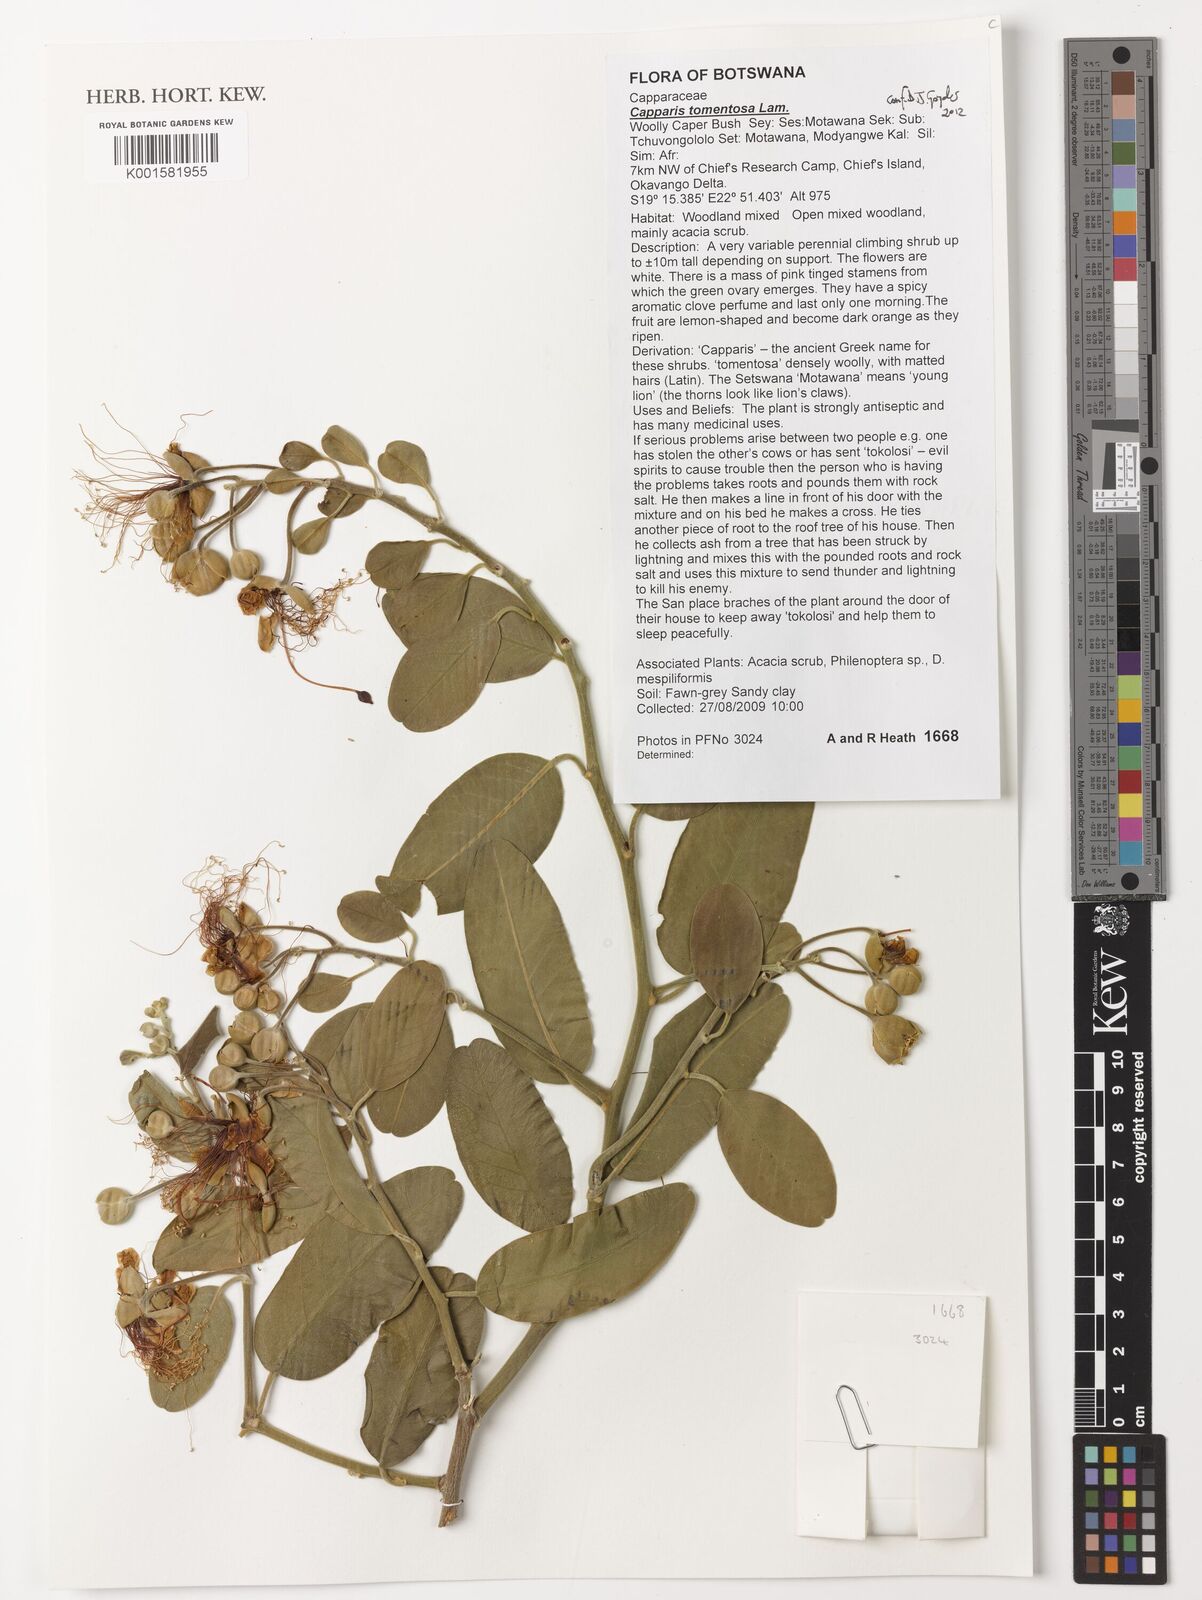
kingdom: Plantae
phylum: Tracheophyta
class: Magnoliopsida
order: Brassicales
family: Capparaceae
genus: Capparis
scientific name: Capparis tomentosa
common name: African caper
